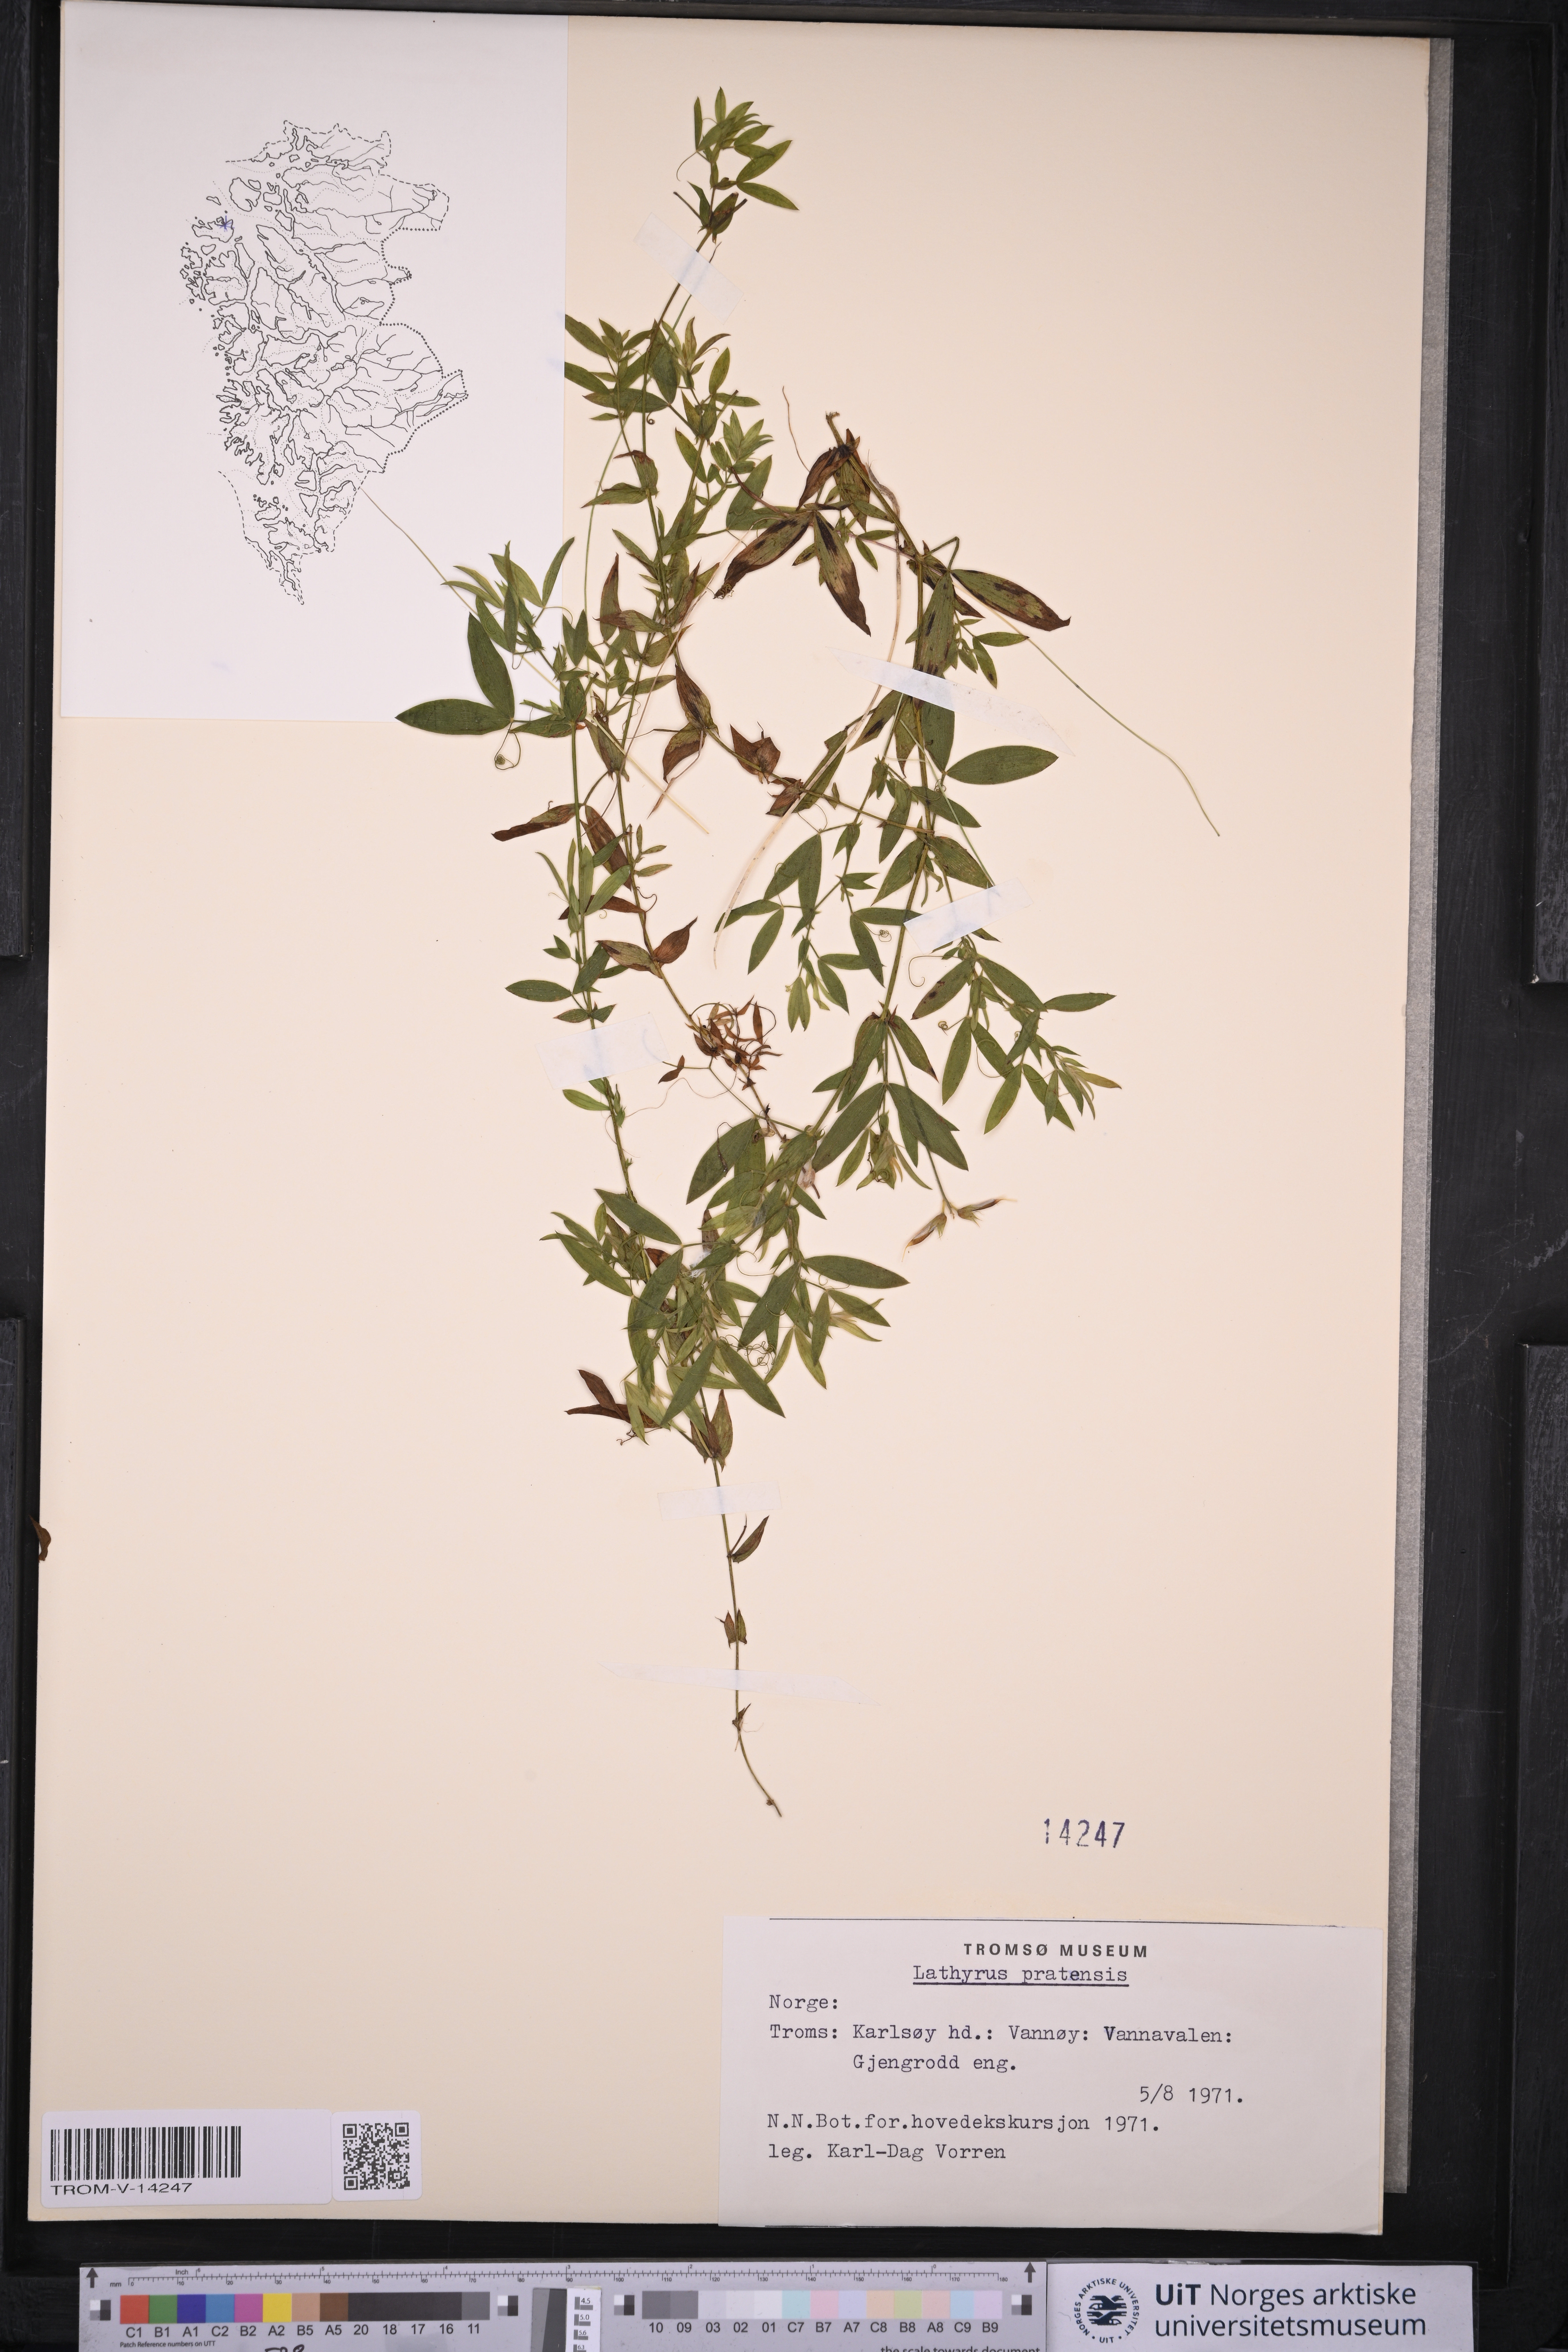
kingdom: Plantae
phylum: Tracheophyta
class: Magnoliopsida
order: Fabales
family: Fabaceae
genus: Lathyrus
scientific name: Lathyrus pratensis
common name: Meadow vetchling
